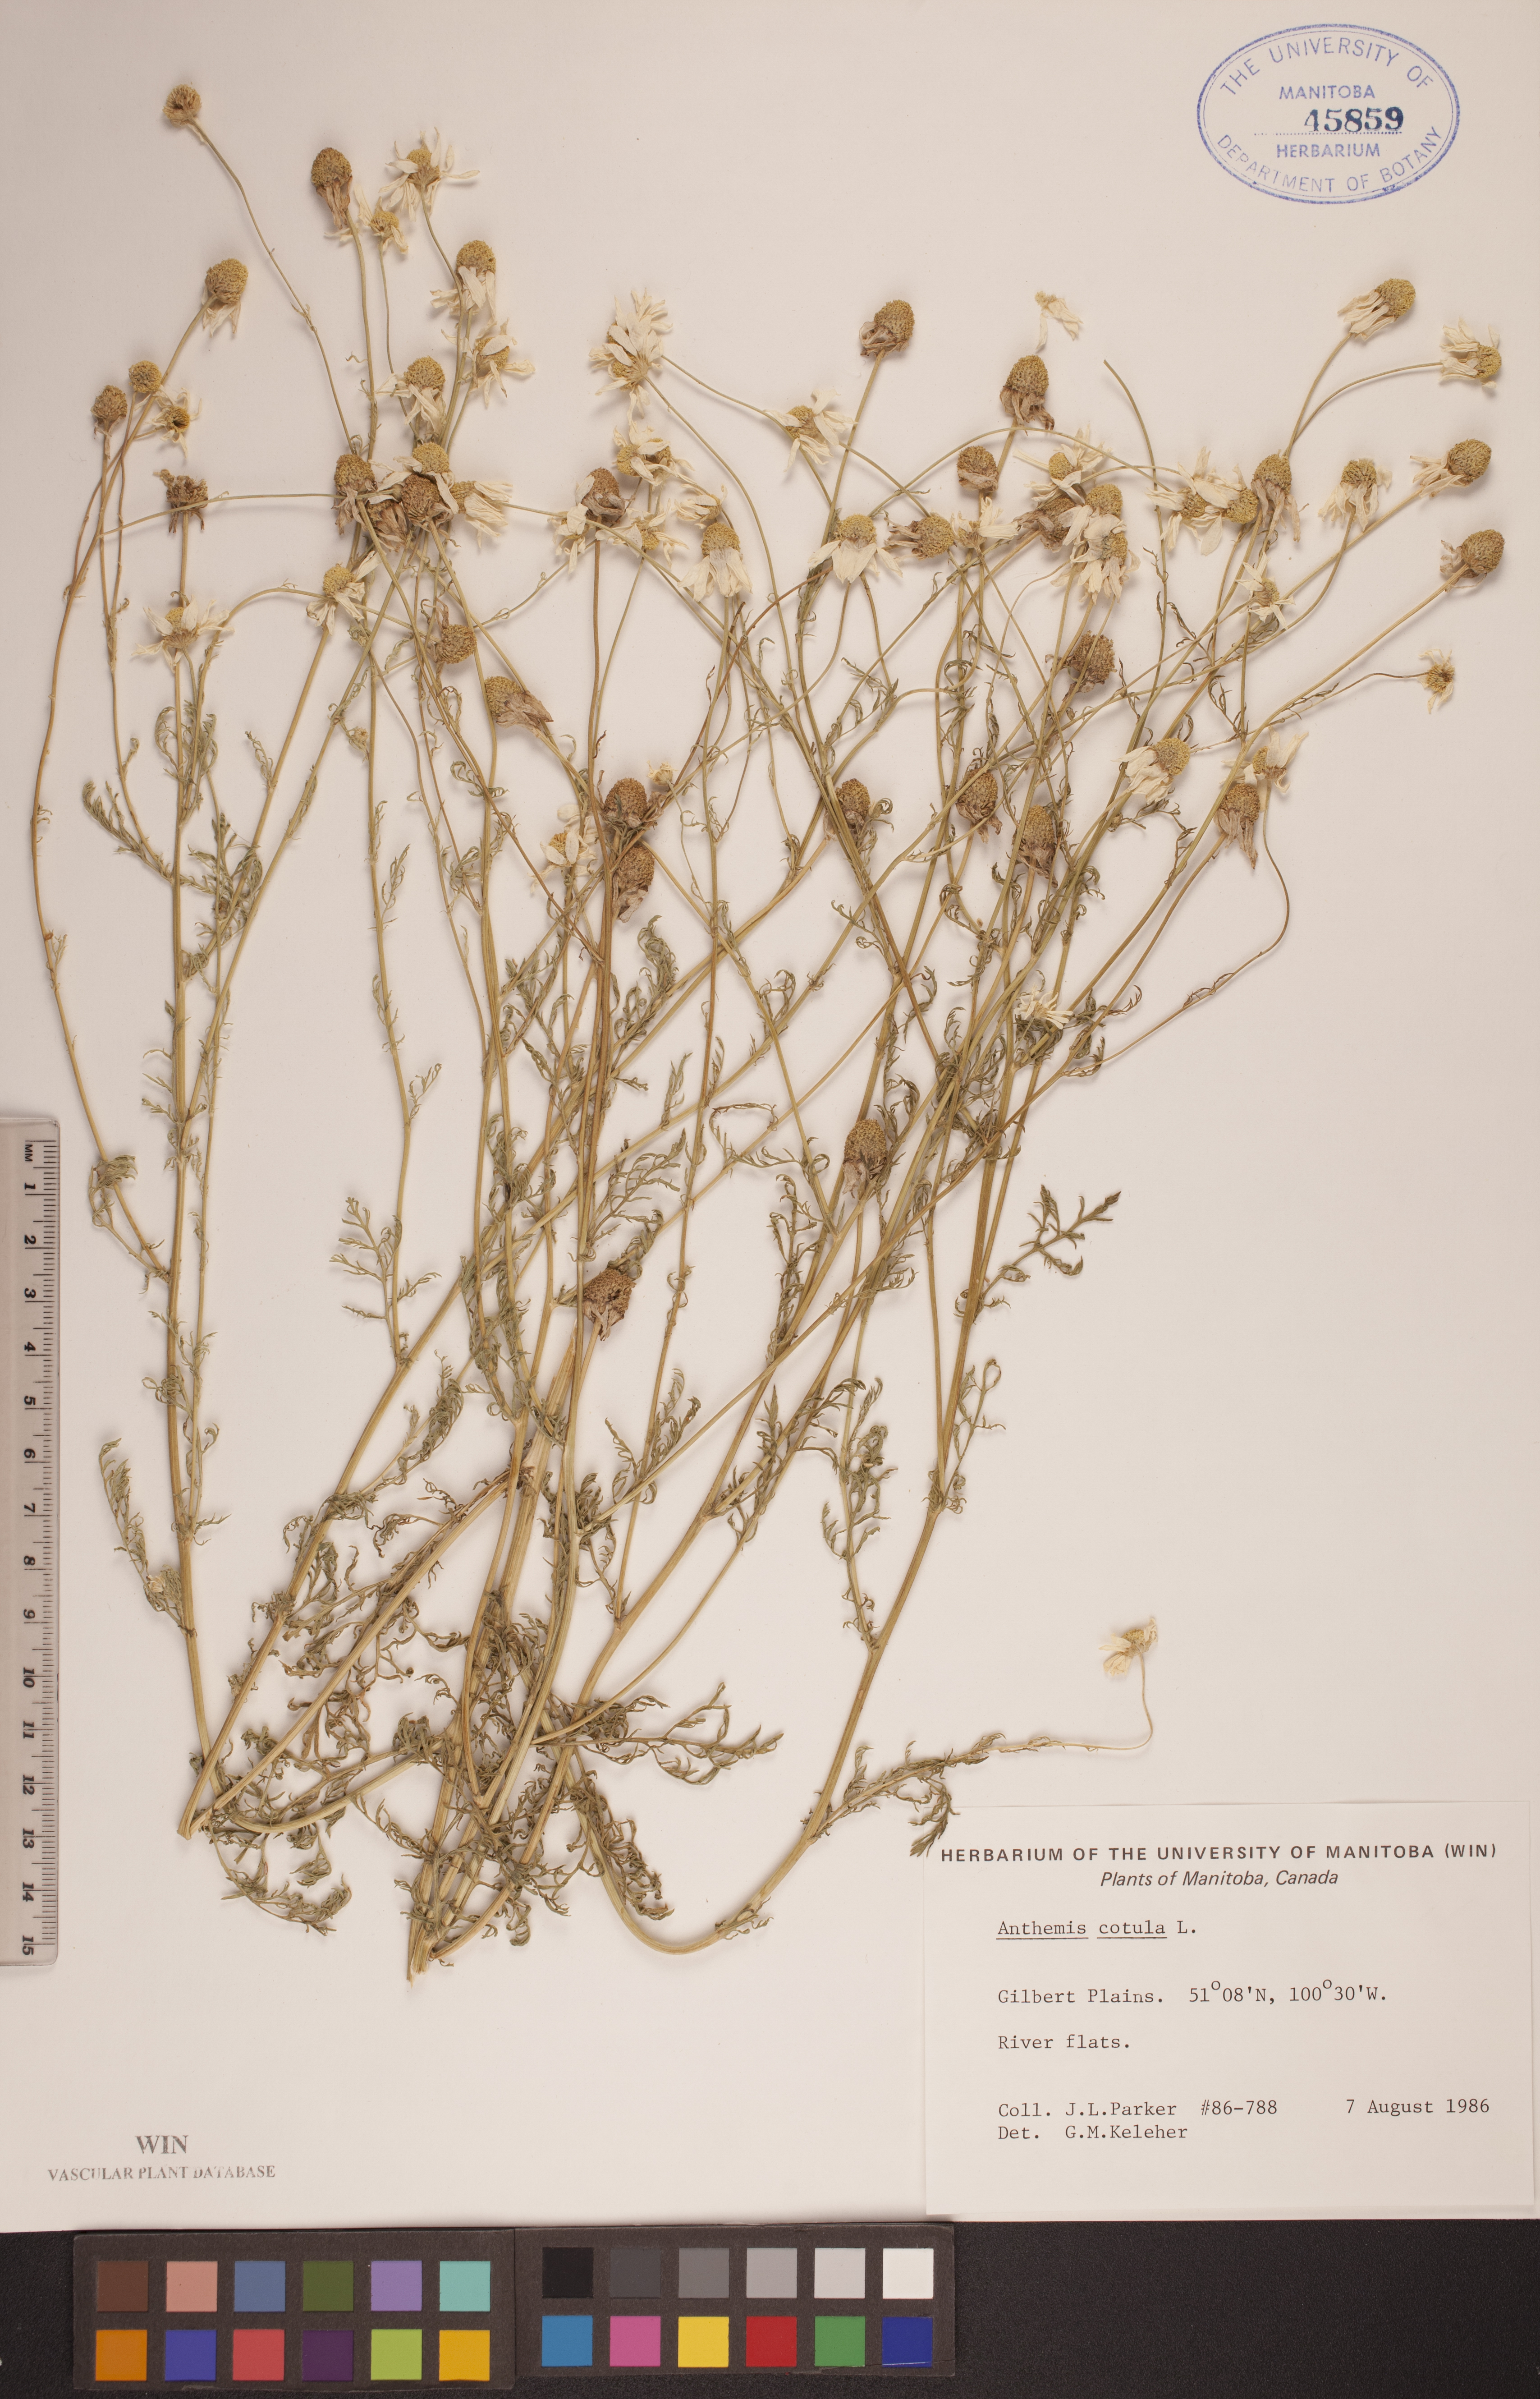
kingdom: Plantae
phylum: Tracheophyta
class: Magnoliopsida
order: Asterales
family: Asteraceae
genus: Anthemis
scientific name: Anthemis cotula
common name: Stinking chamomile
